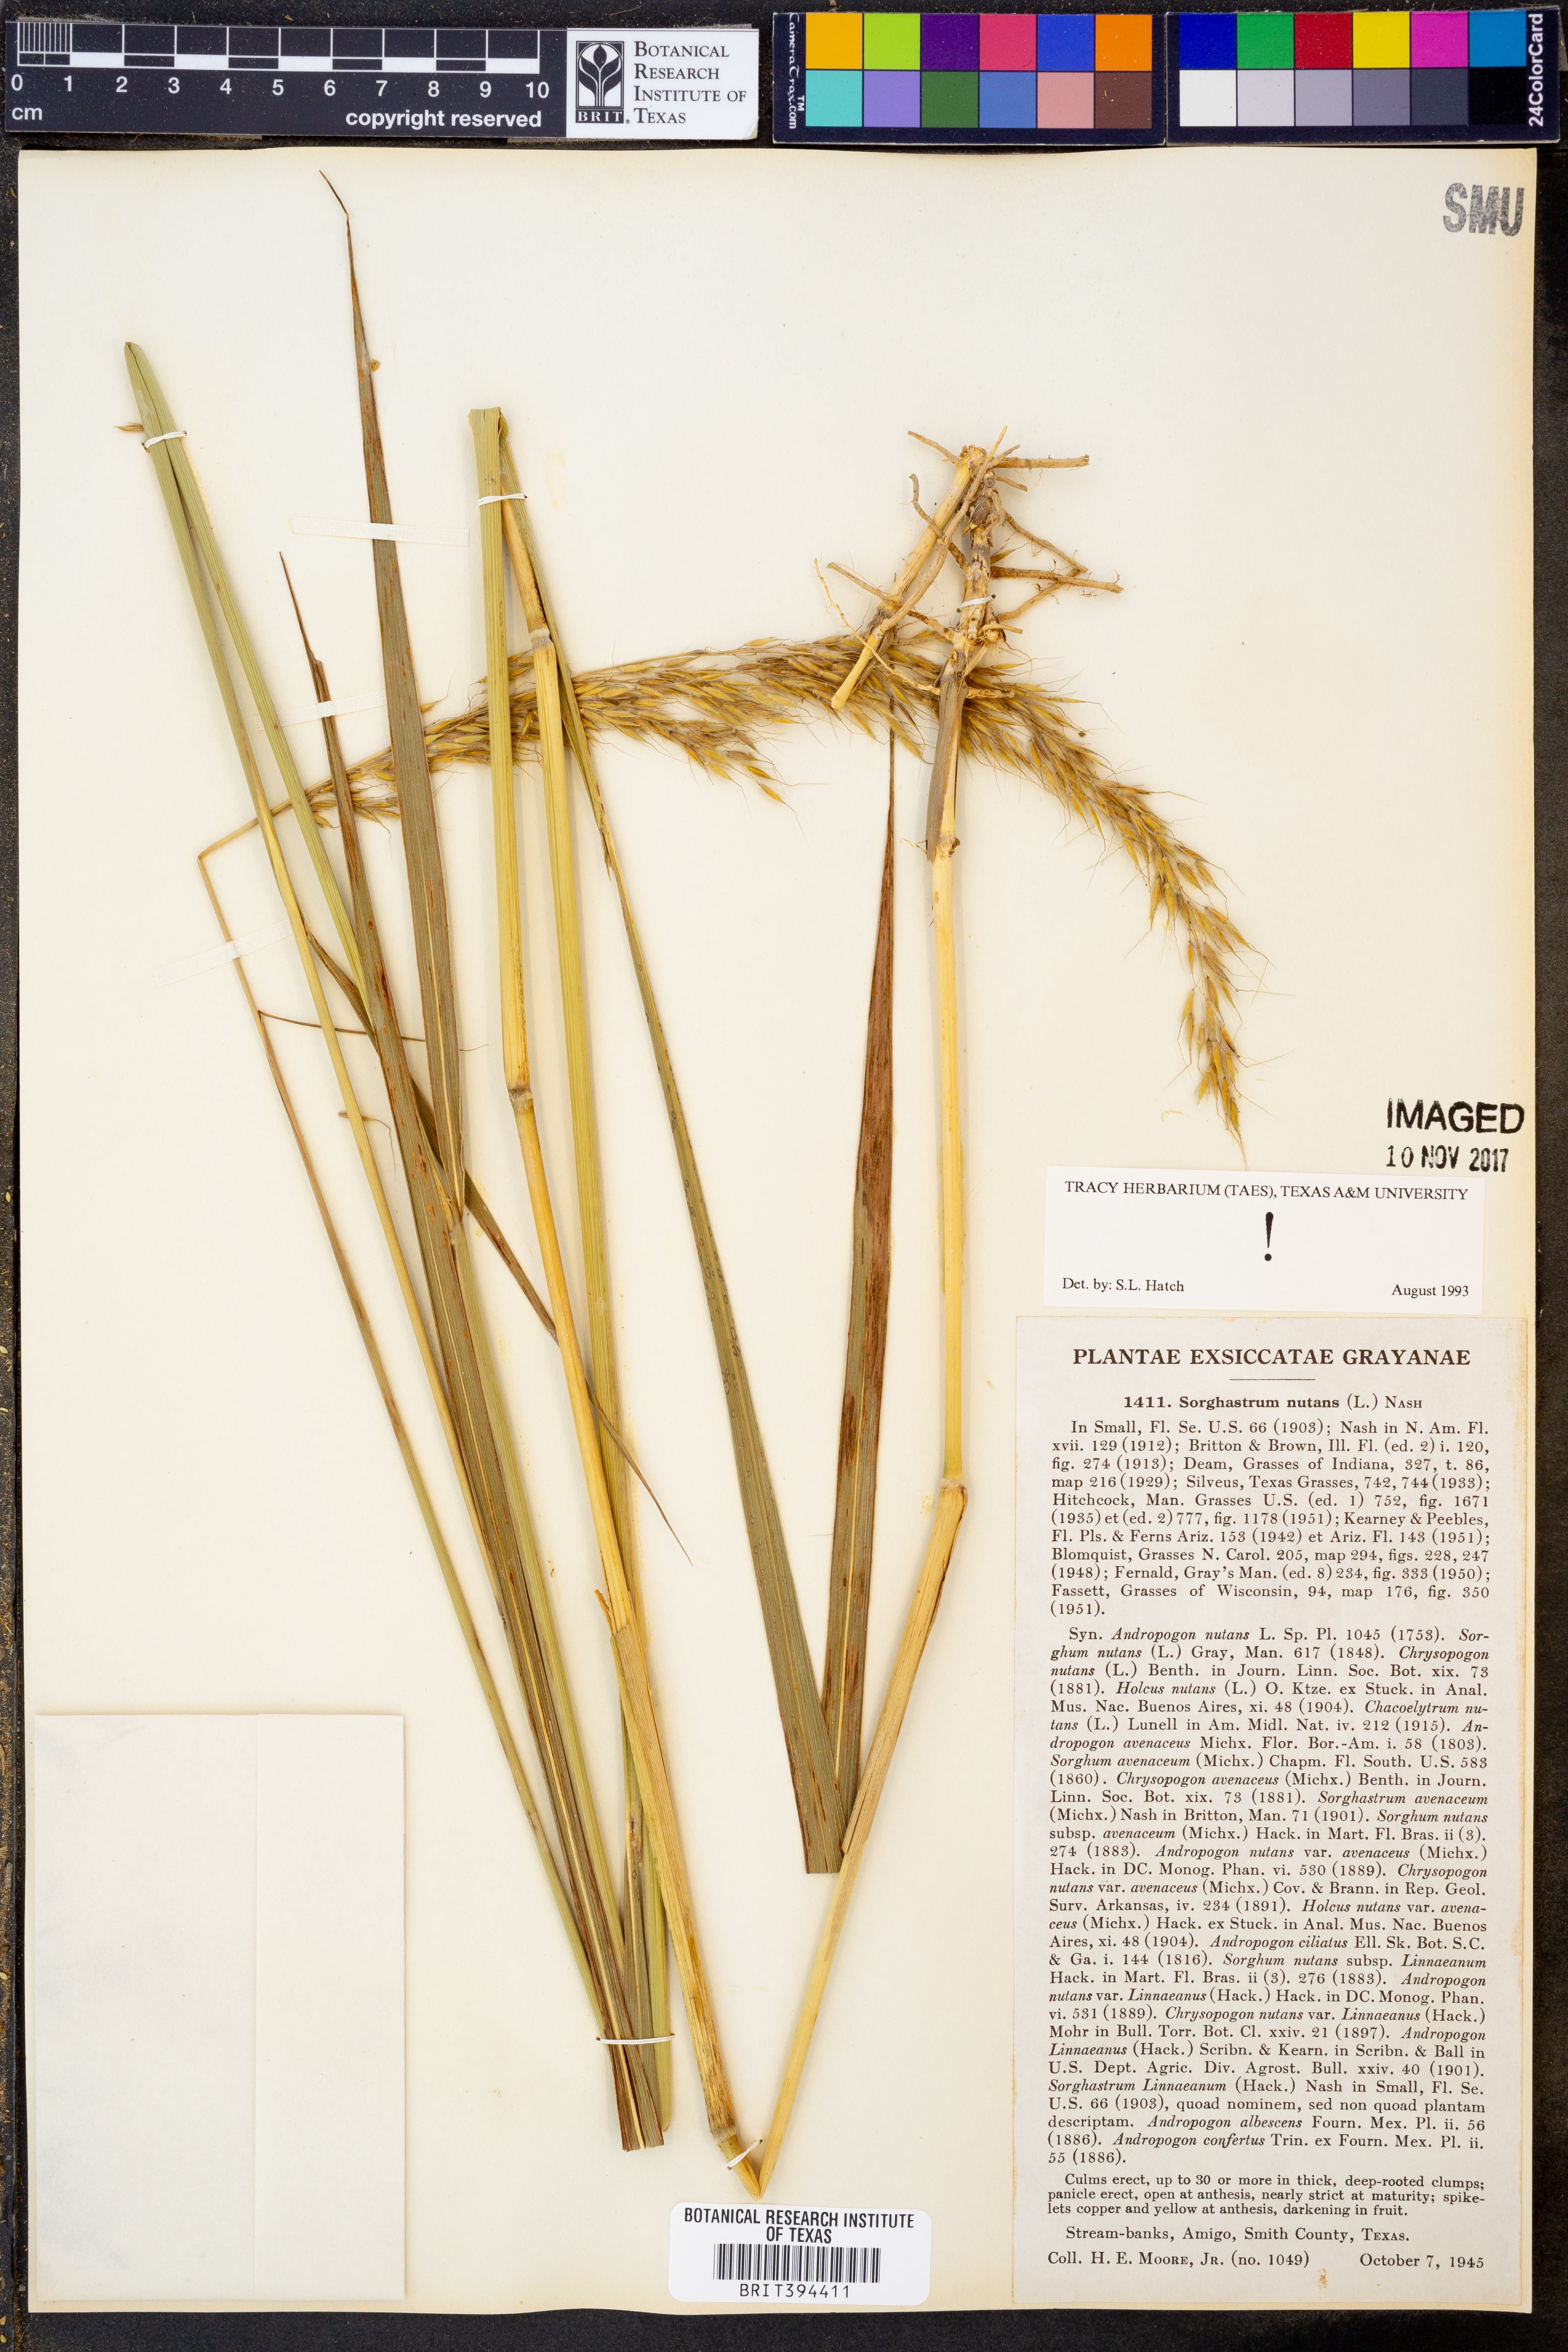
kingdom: Plantae
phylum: Tracheophyta
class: Liliopsida
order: Poales
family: Poaceae
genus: Sorghastrum
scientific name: Sorghastrum nutans
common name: Indian grass
